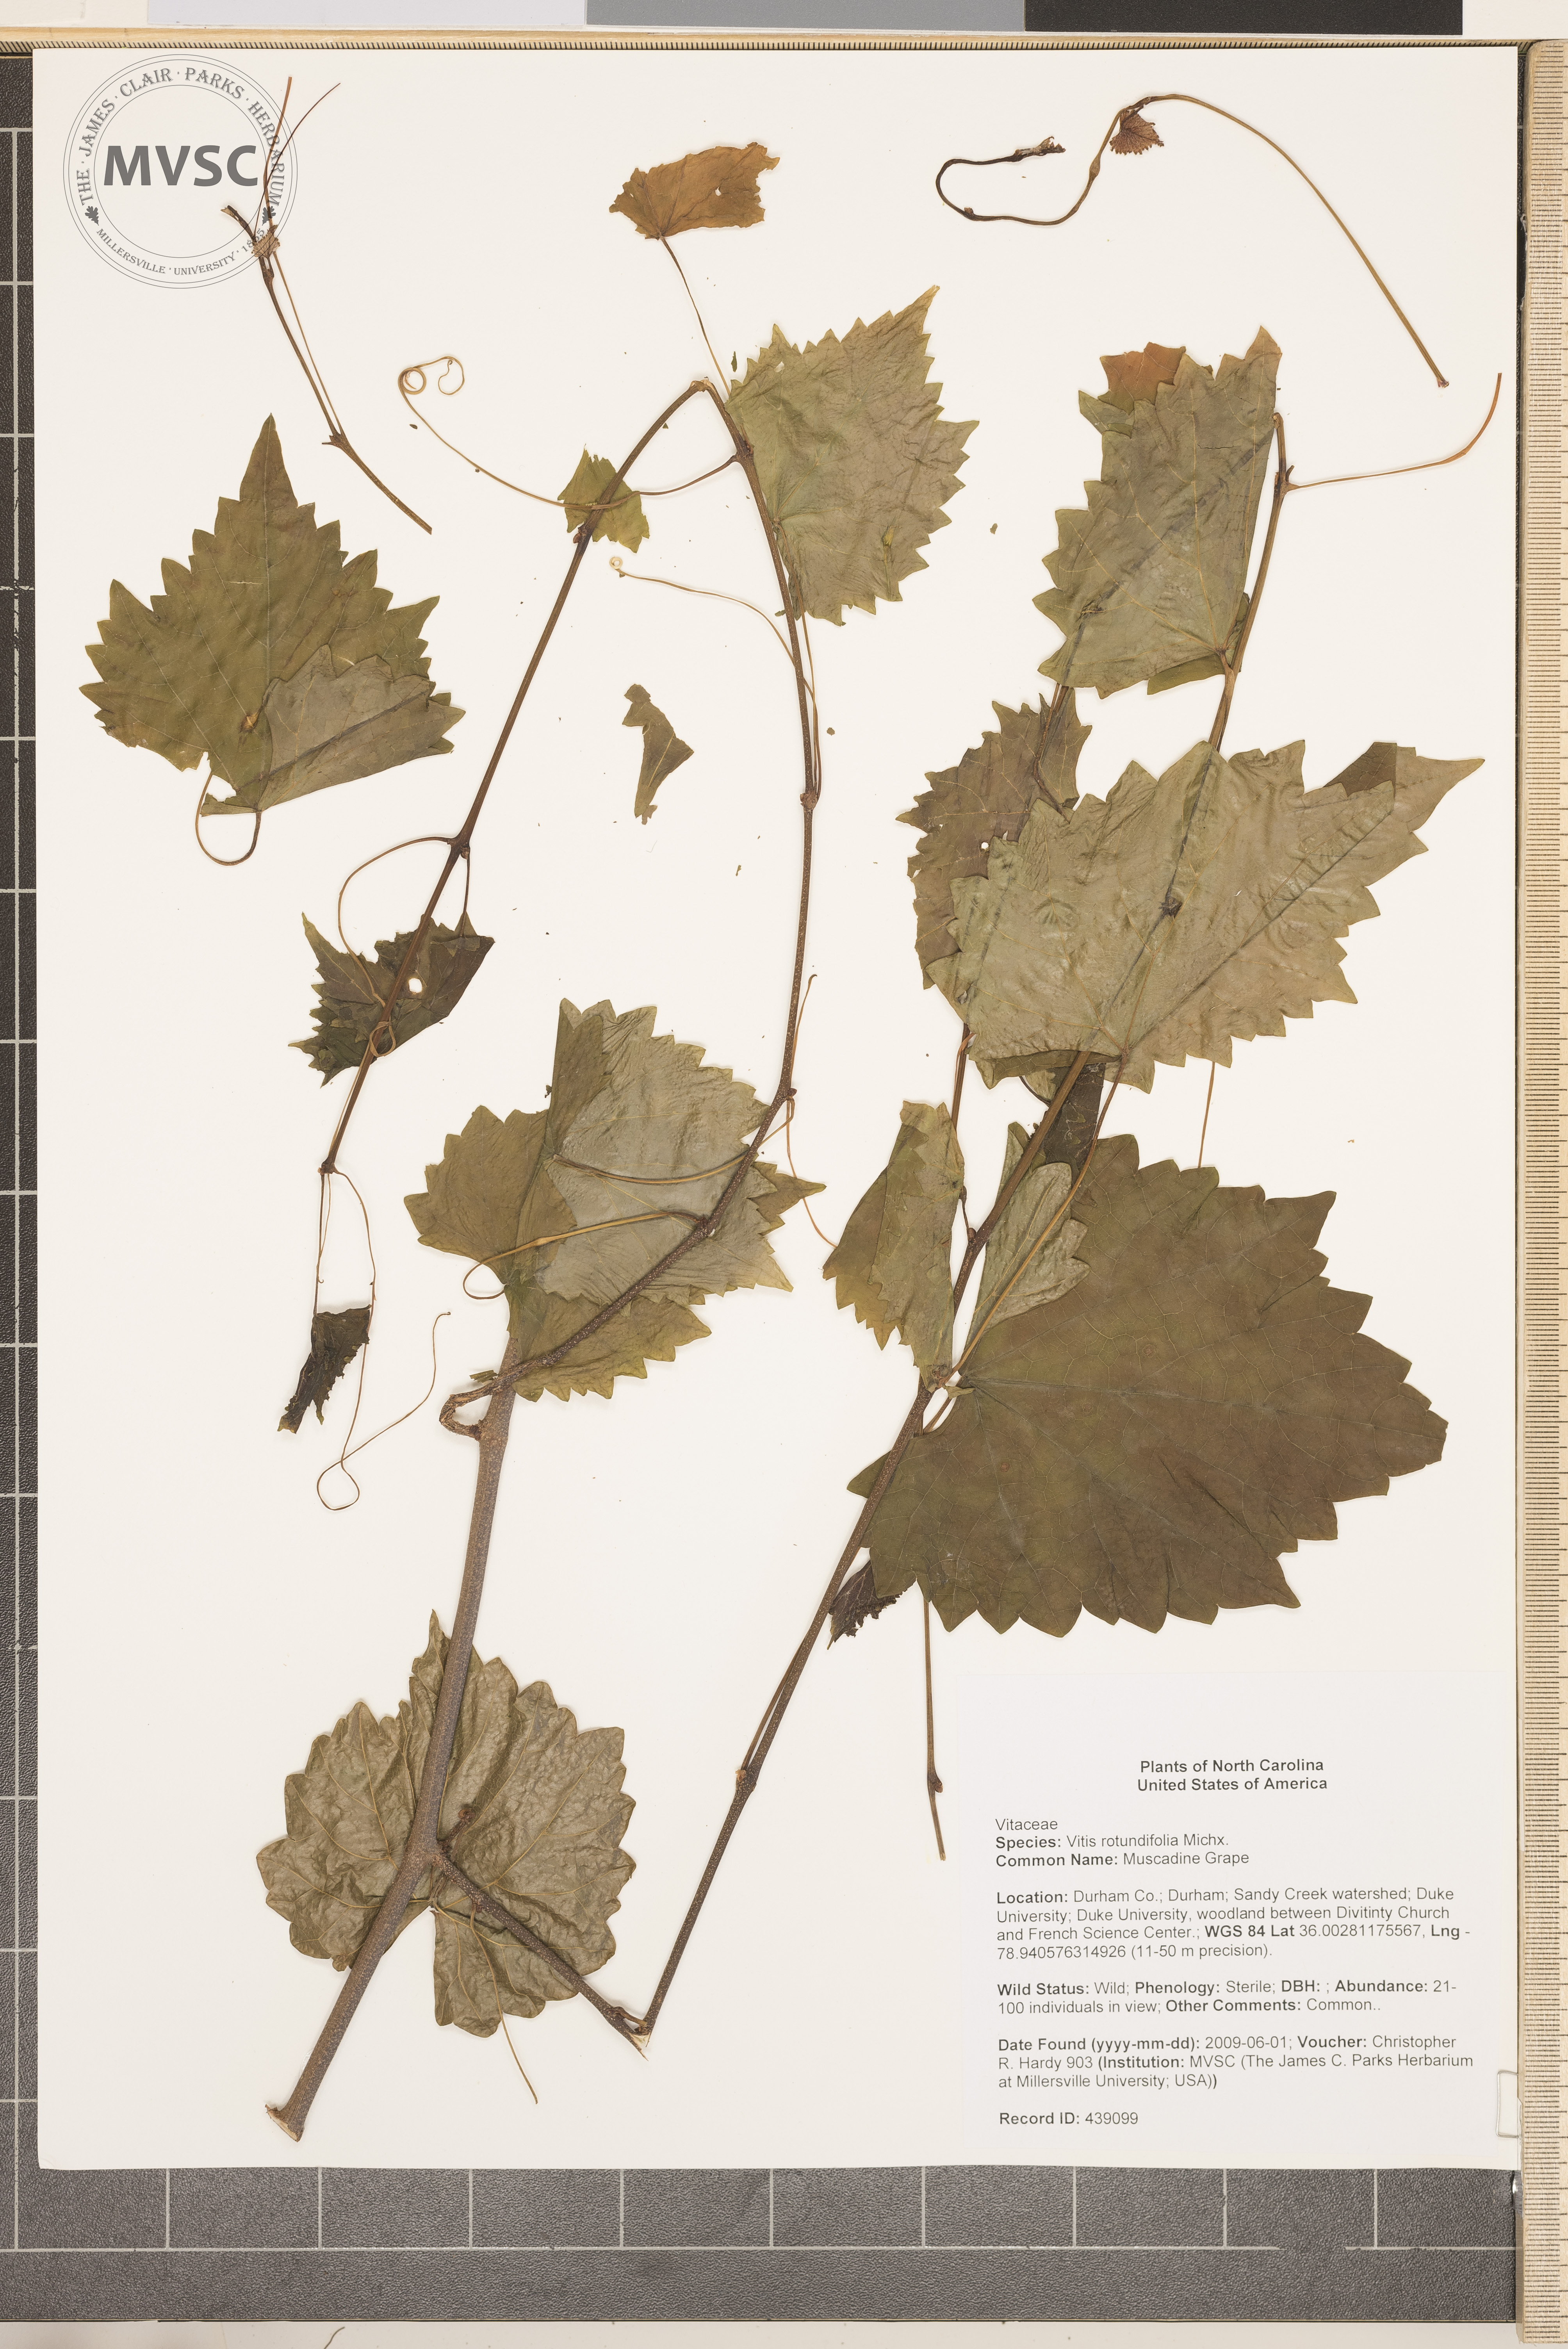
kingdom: Plantae
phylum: Tracheophyta
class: Magnoliopsida
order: Vitales
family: Vitaceae
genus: Vitis
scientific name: Vitis rotundifolia
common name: Muscadine Grape
